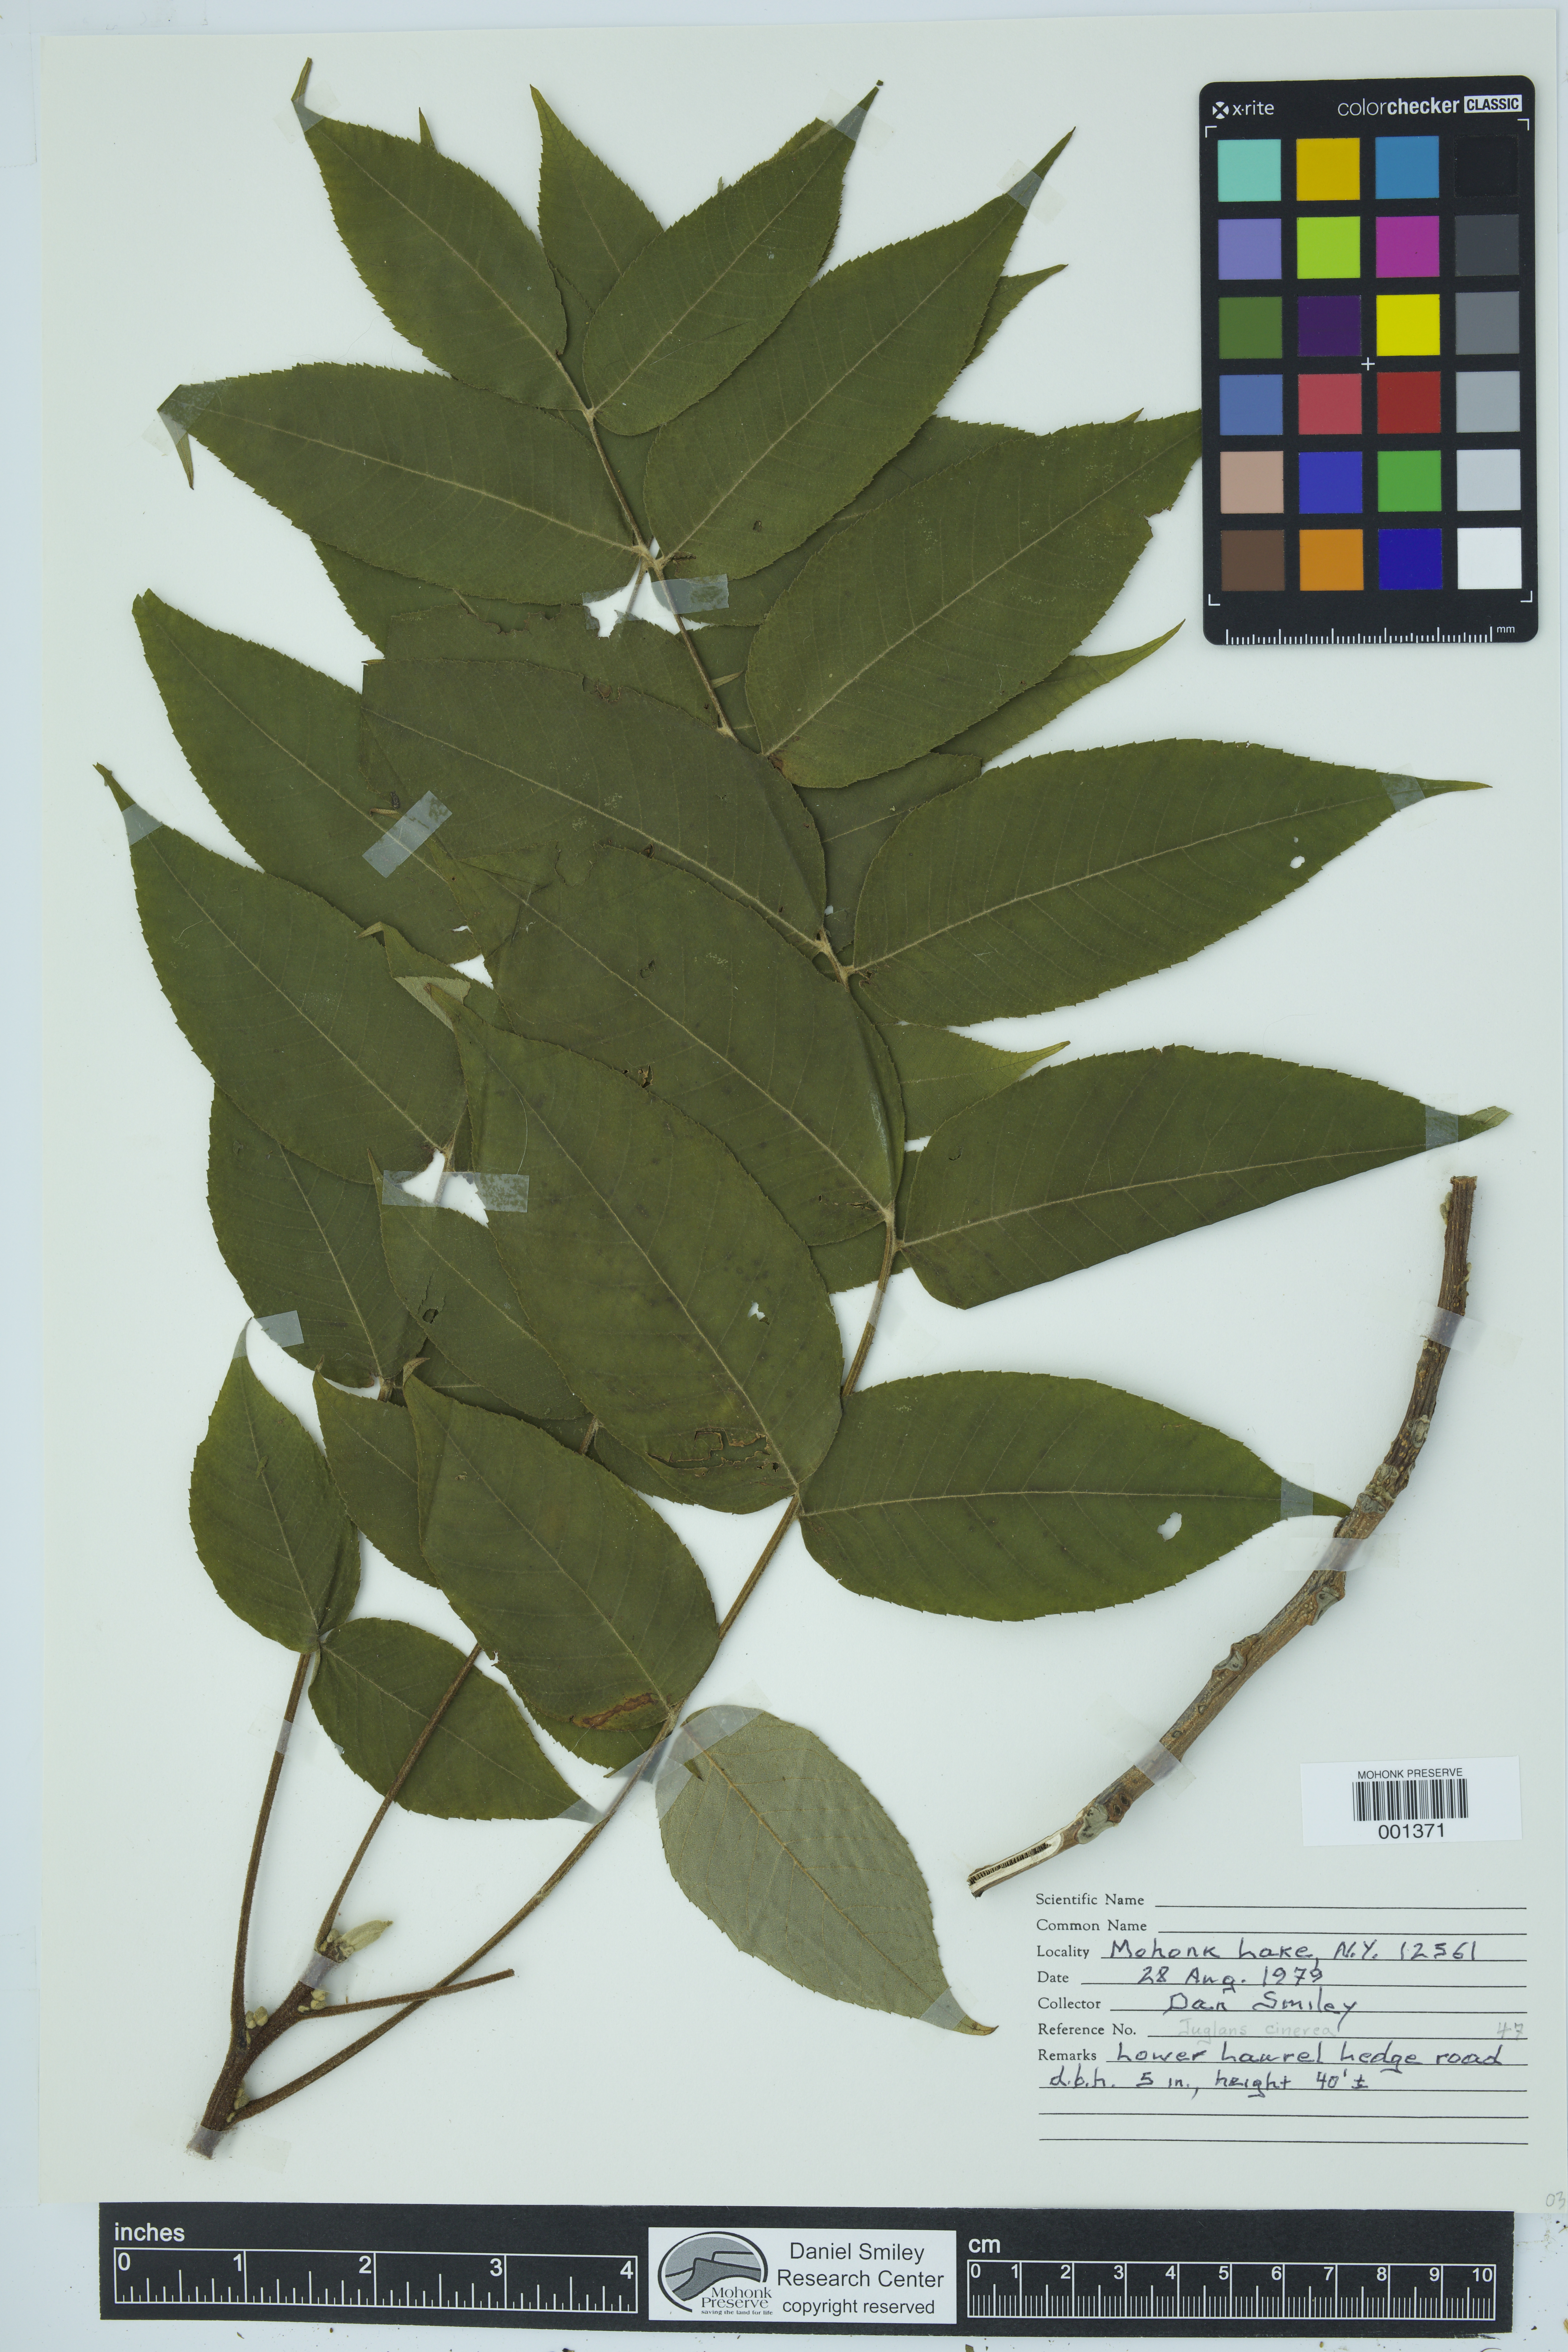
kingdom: Plantae
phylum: Tracheophyta
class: Magnoliopsida
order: Fagales
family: Juglandaceae
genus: Juglans
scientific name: Juglans cinerea
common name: Butternut
